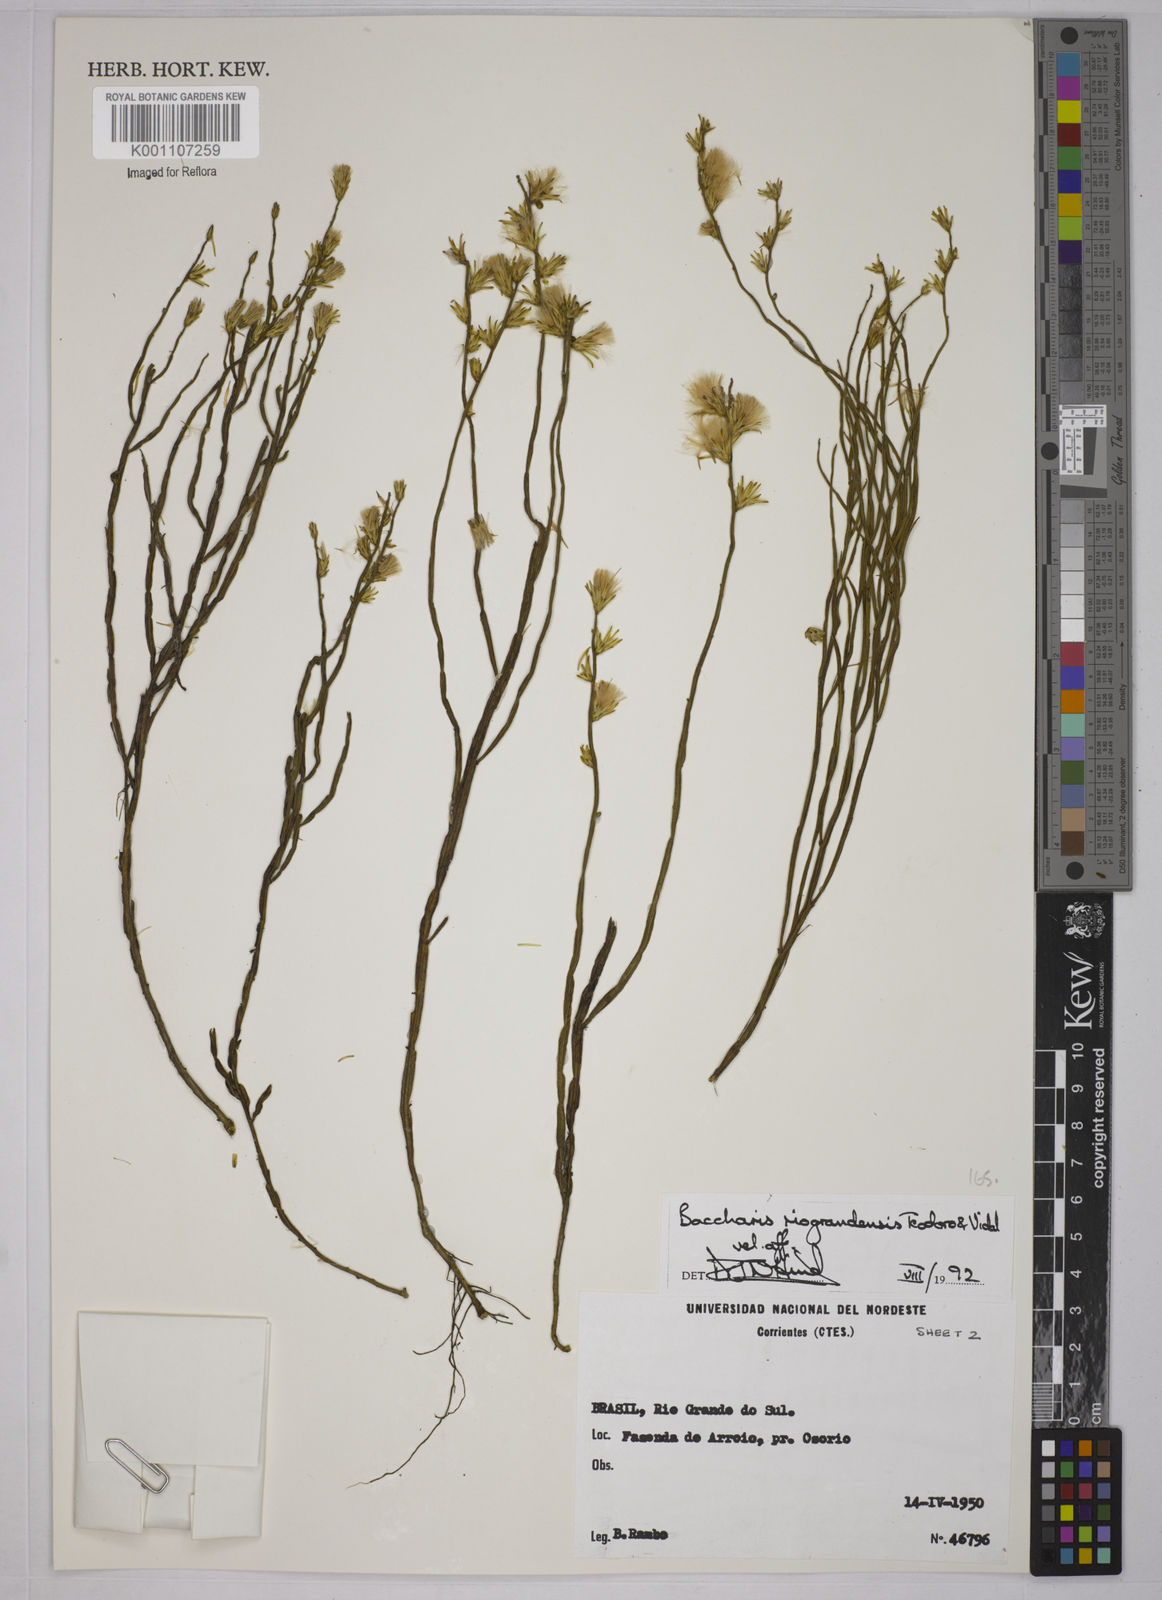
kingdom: Plantae
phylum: Tracheophyta
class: Magnoliopsida
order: Asterales
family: Asteraceae
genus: Baccharis
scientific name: Baccharis riograndensis
